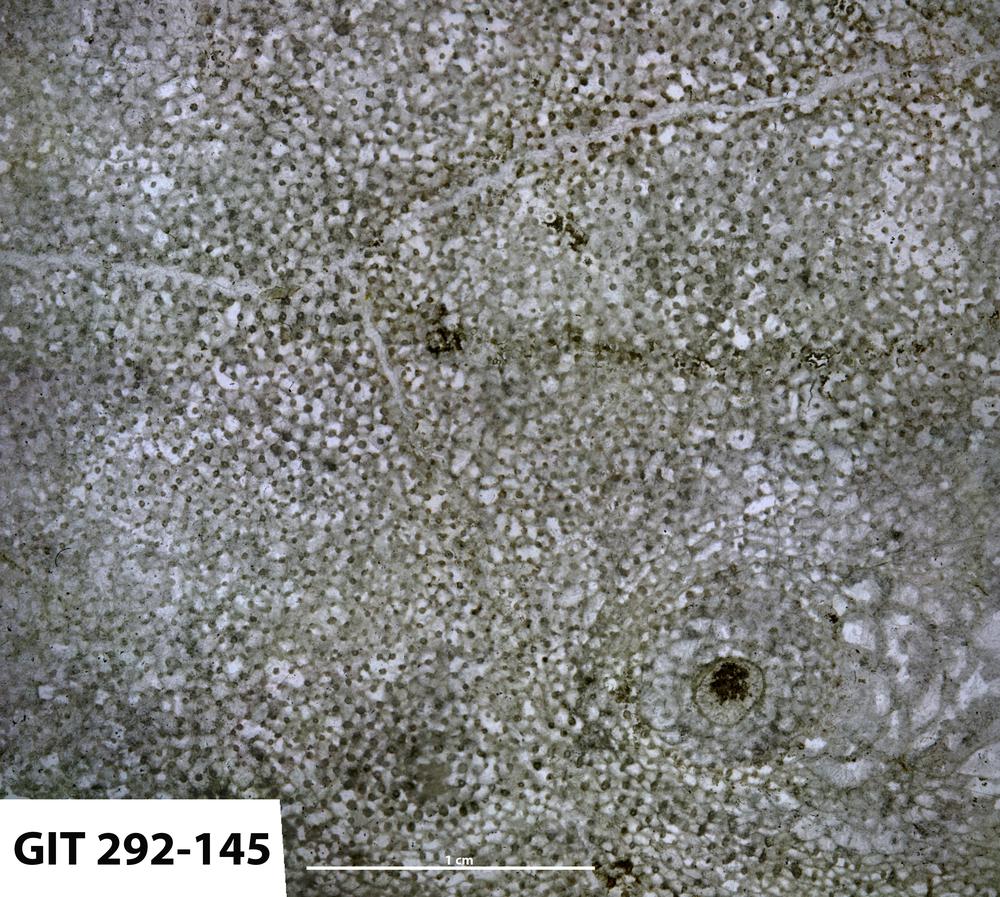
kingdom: Animalia
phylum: Porifera
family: Labechiidae
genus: Labechia
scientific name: Labechia
